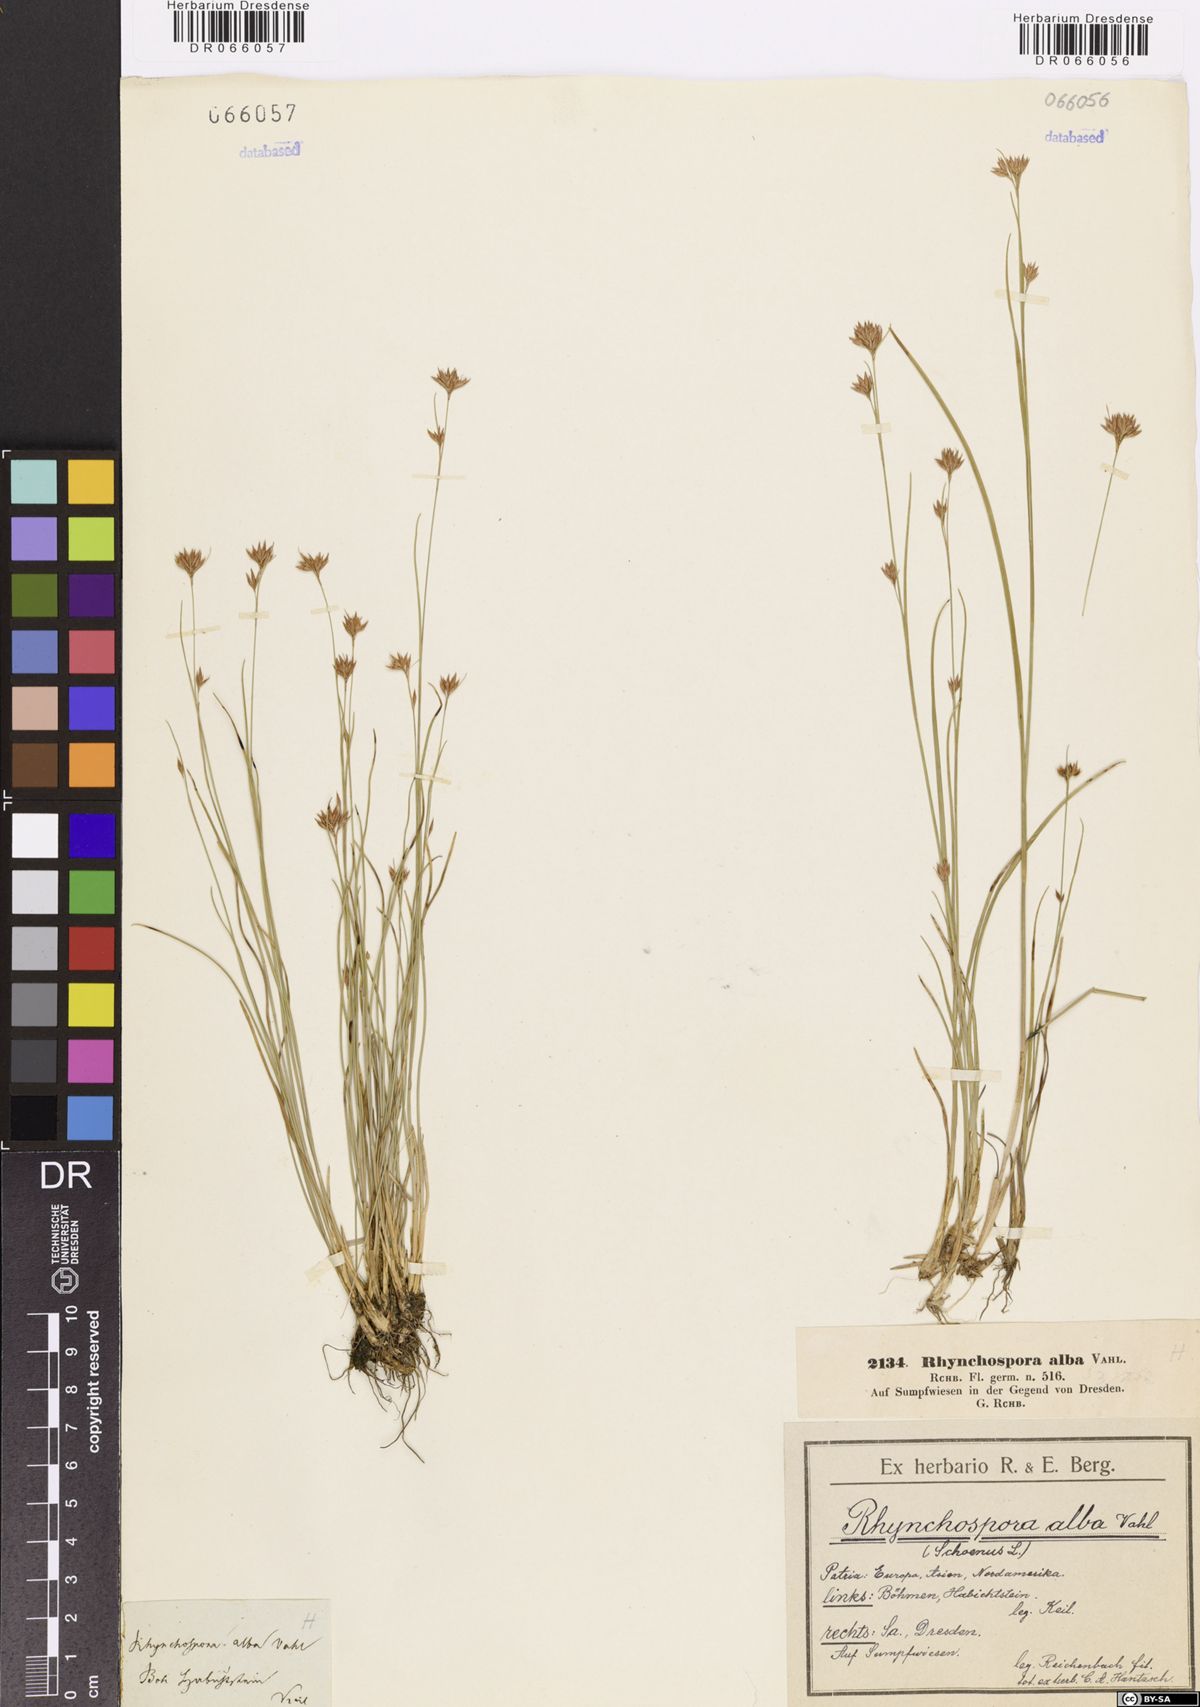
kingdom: Plantae
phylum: Tracheophyta
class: Liliopsida
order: Poales
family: Cyperaceae
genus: Rhynchospora
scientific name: Rhynchospora alba
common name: White beak-sedge
